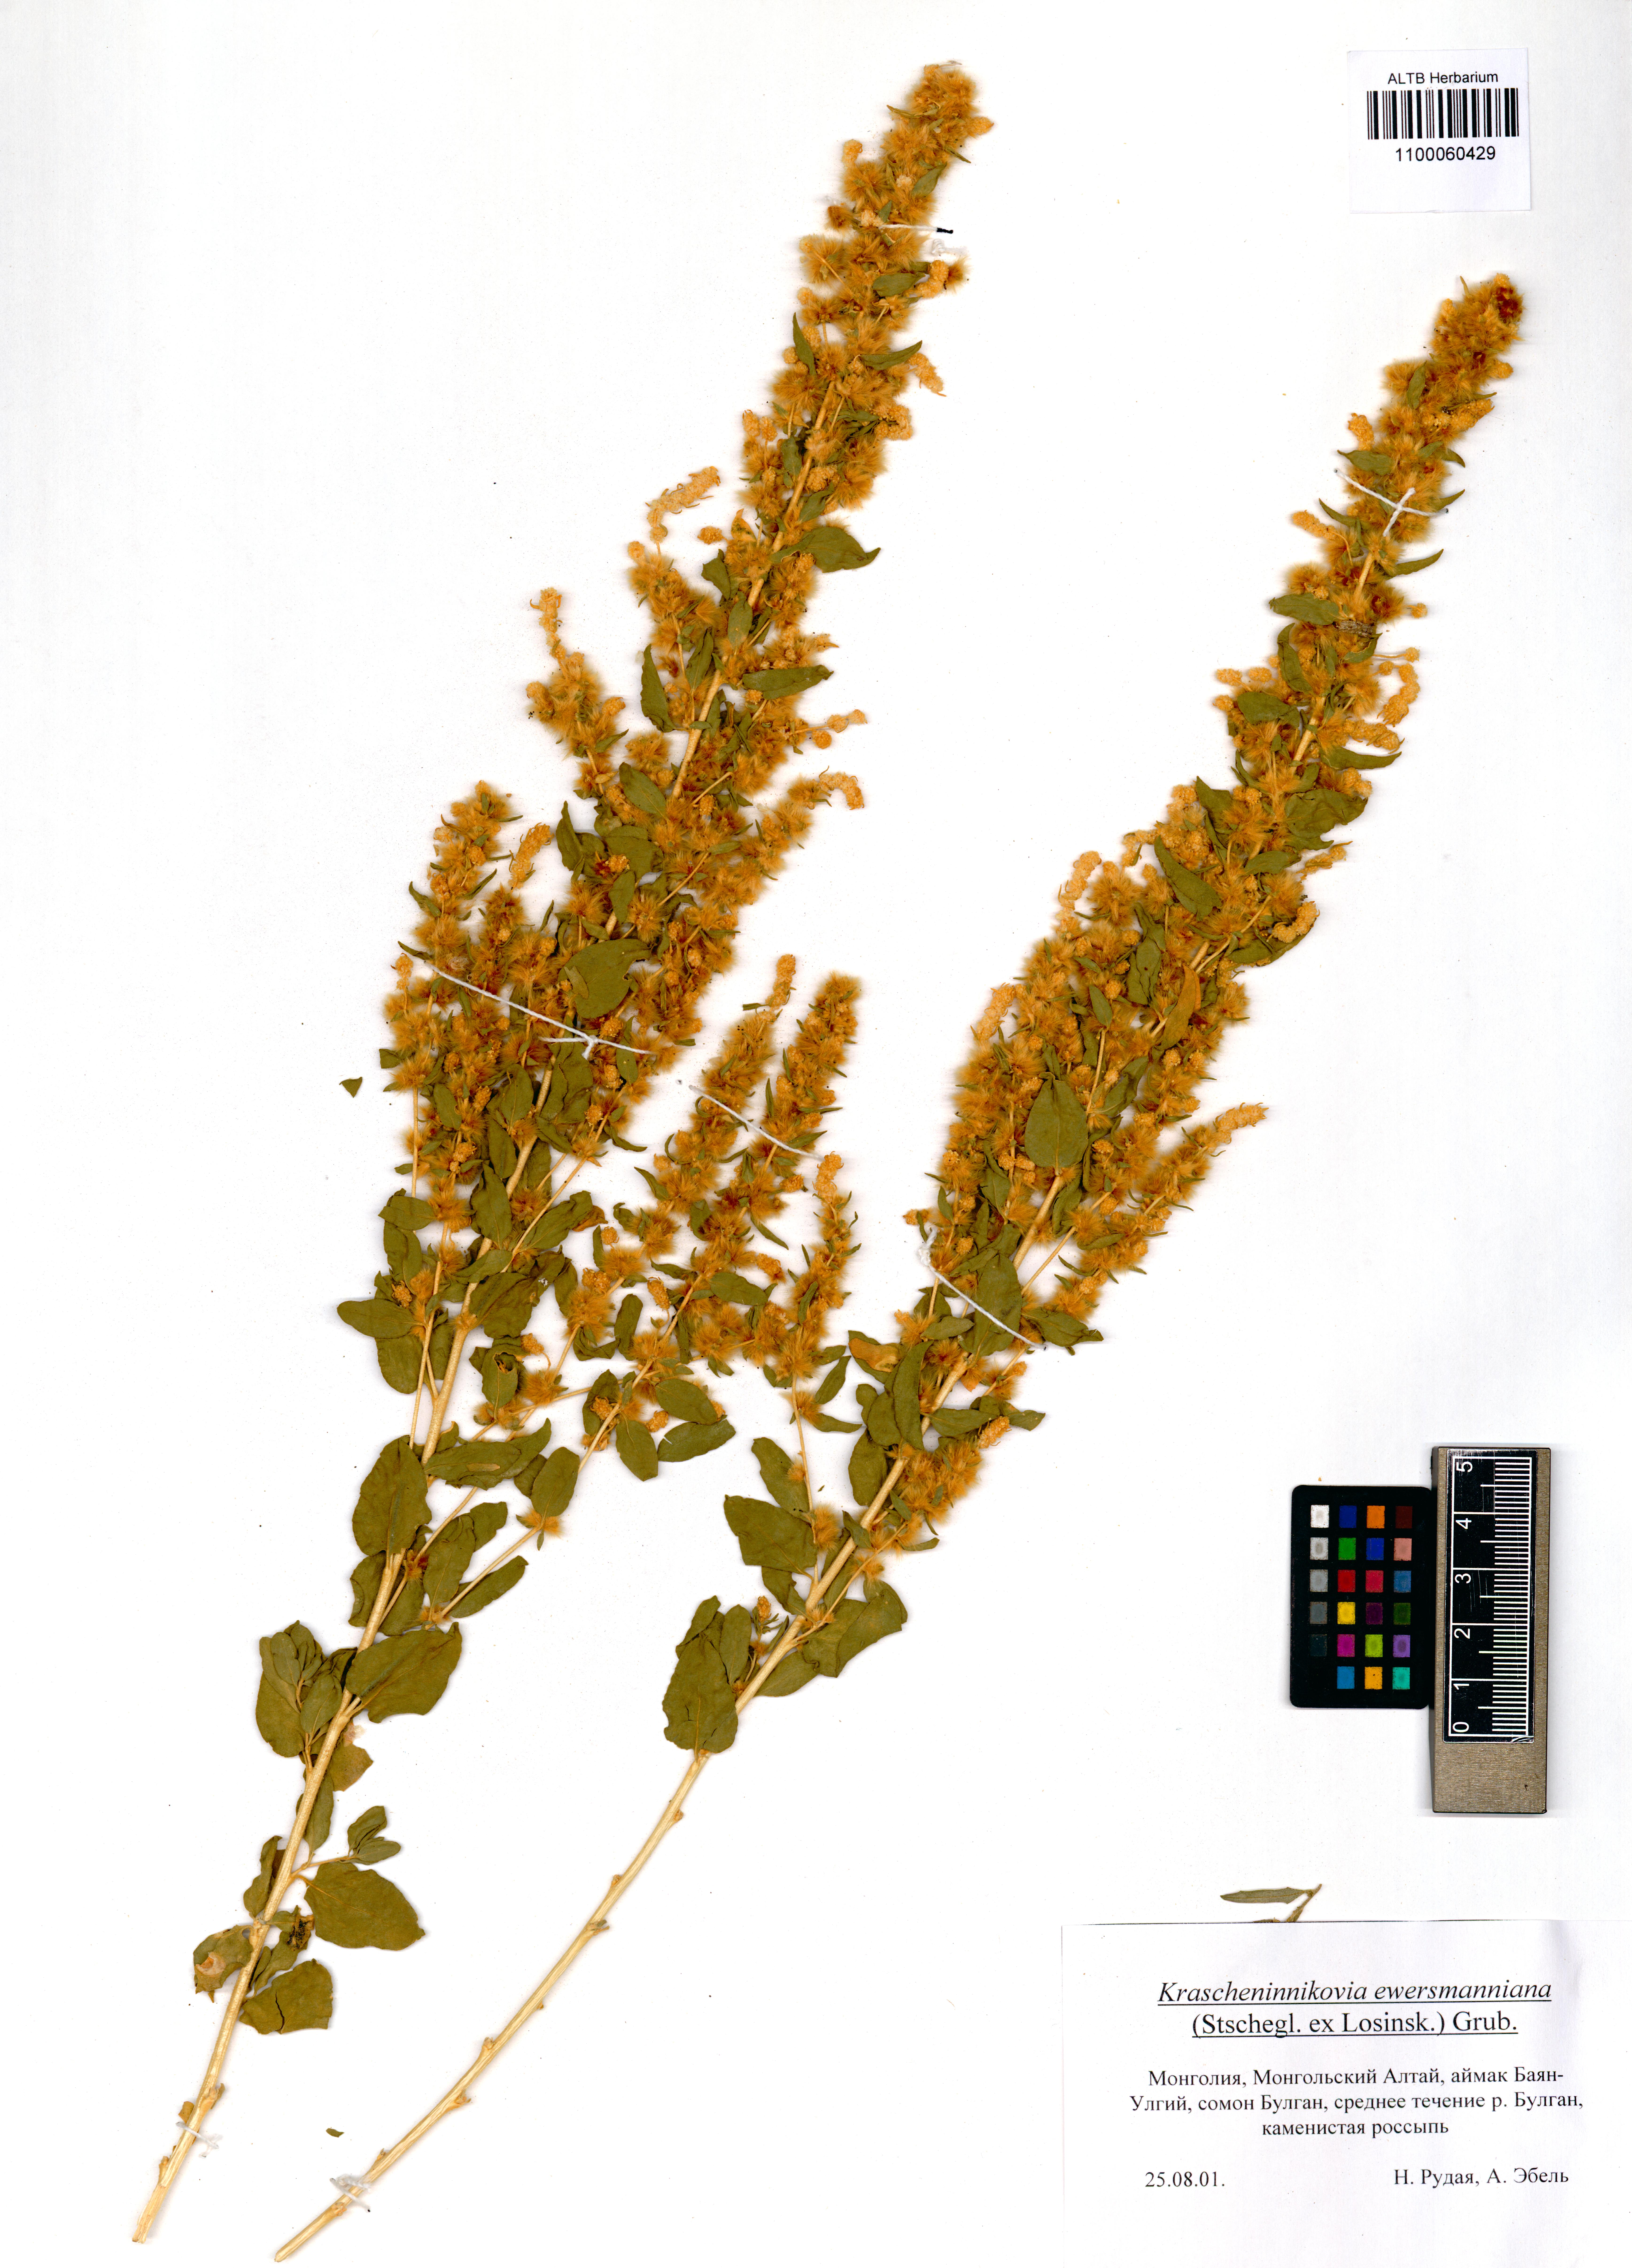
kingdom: Plantae
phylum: Tracheophyta
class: Magnoliopsida
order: Caryophyllales
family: Amaranthaceae
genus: Krascheninnikovia
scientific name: Krascheninnikovia ceratoides
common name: Pamirian winterfat
